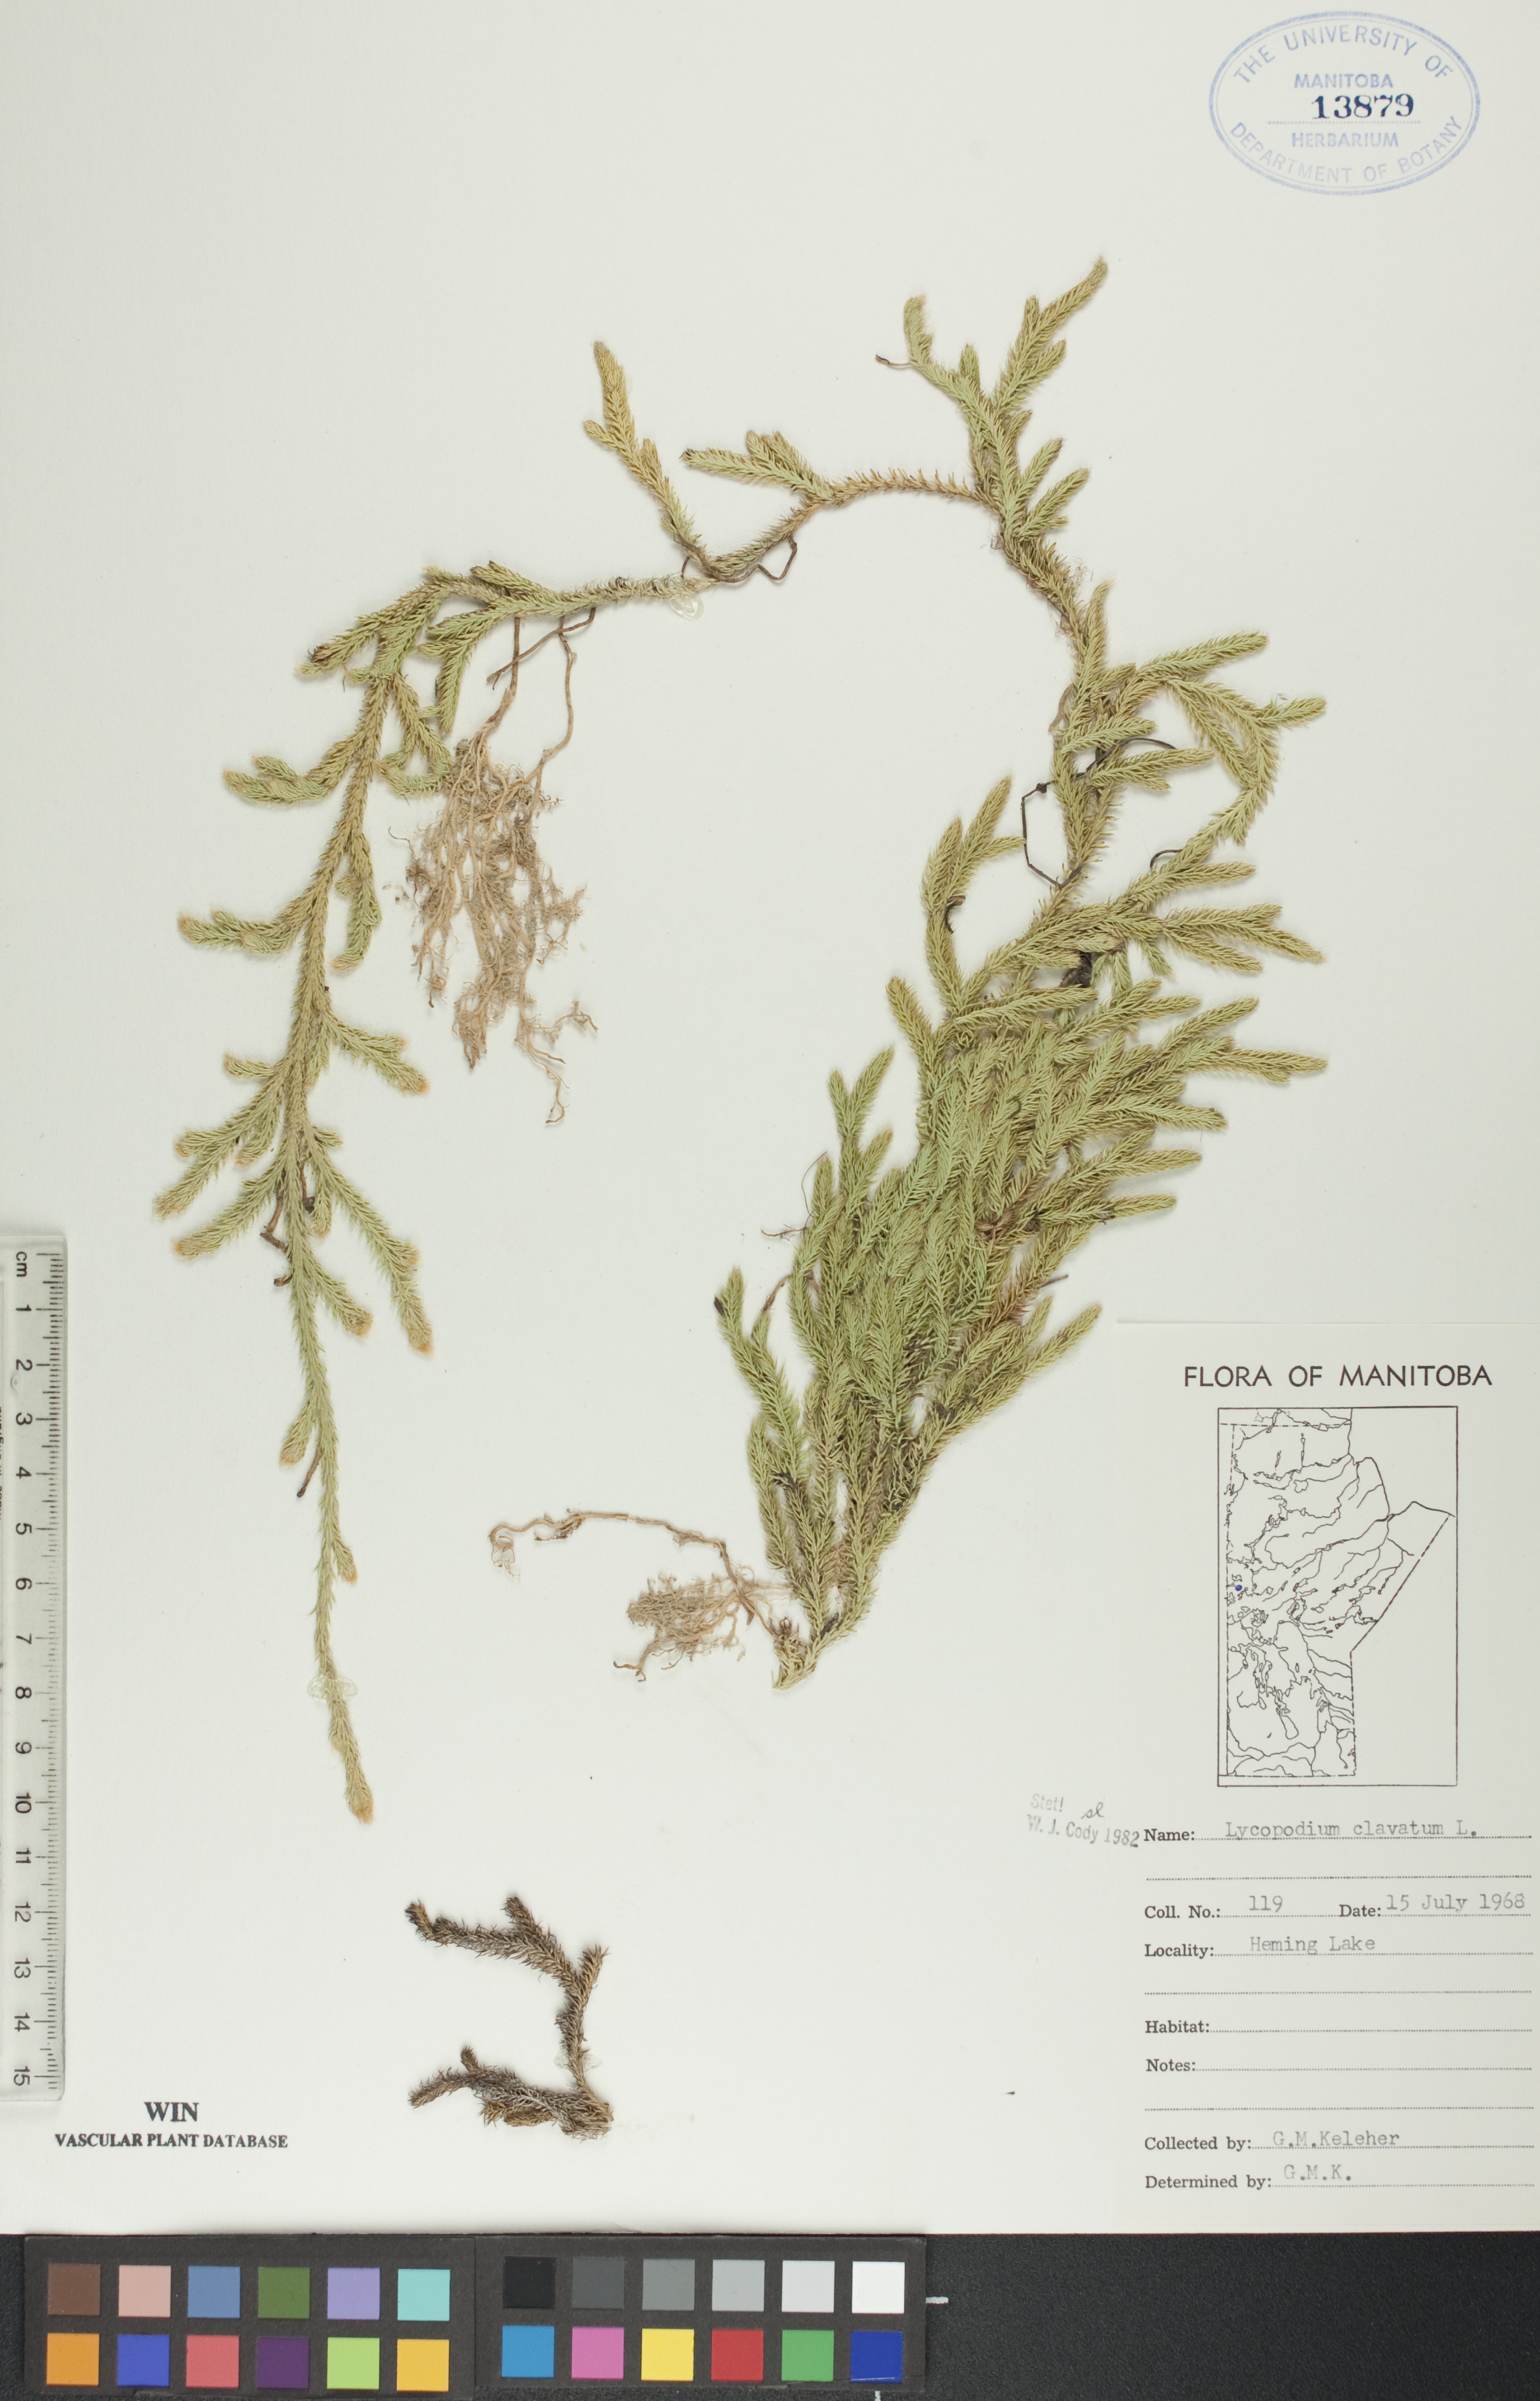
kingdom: Plantae
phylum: Tracheophyta
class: Lycopodiopsida
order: Lycopodiales
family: Lycopodiaceae
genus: Lycopodium
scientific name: Lycopodium clavatum
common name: Stag's-horn clubmoss
